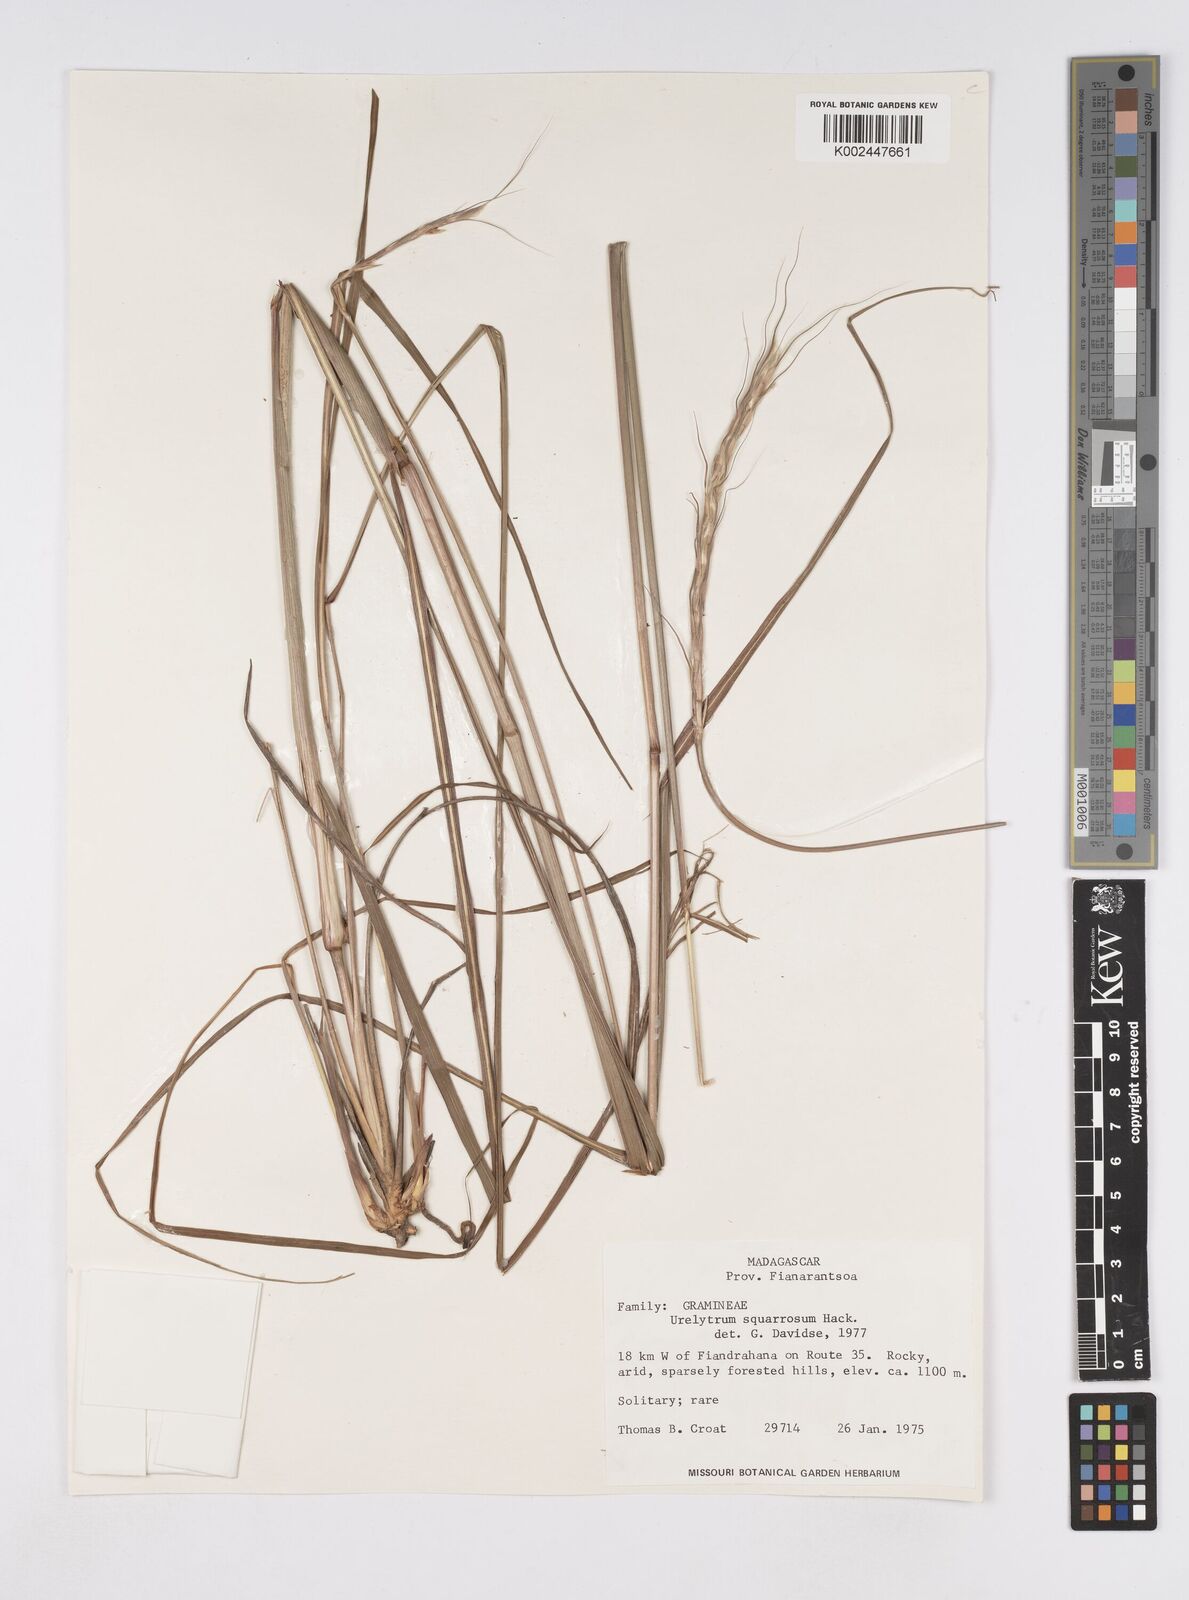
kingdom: Plantae
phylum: Tracheophyta
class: Liliopsida
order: Poales
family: Poaceae
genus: Urelytrum
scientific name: Urelytrum agropyroides
